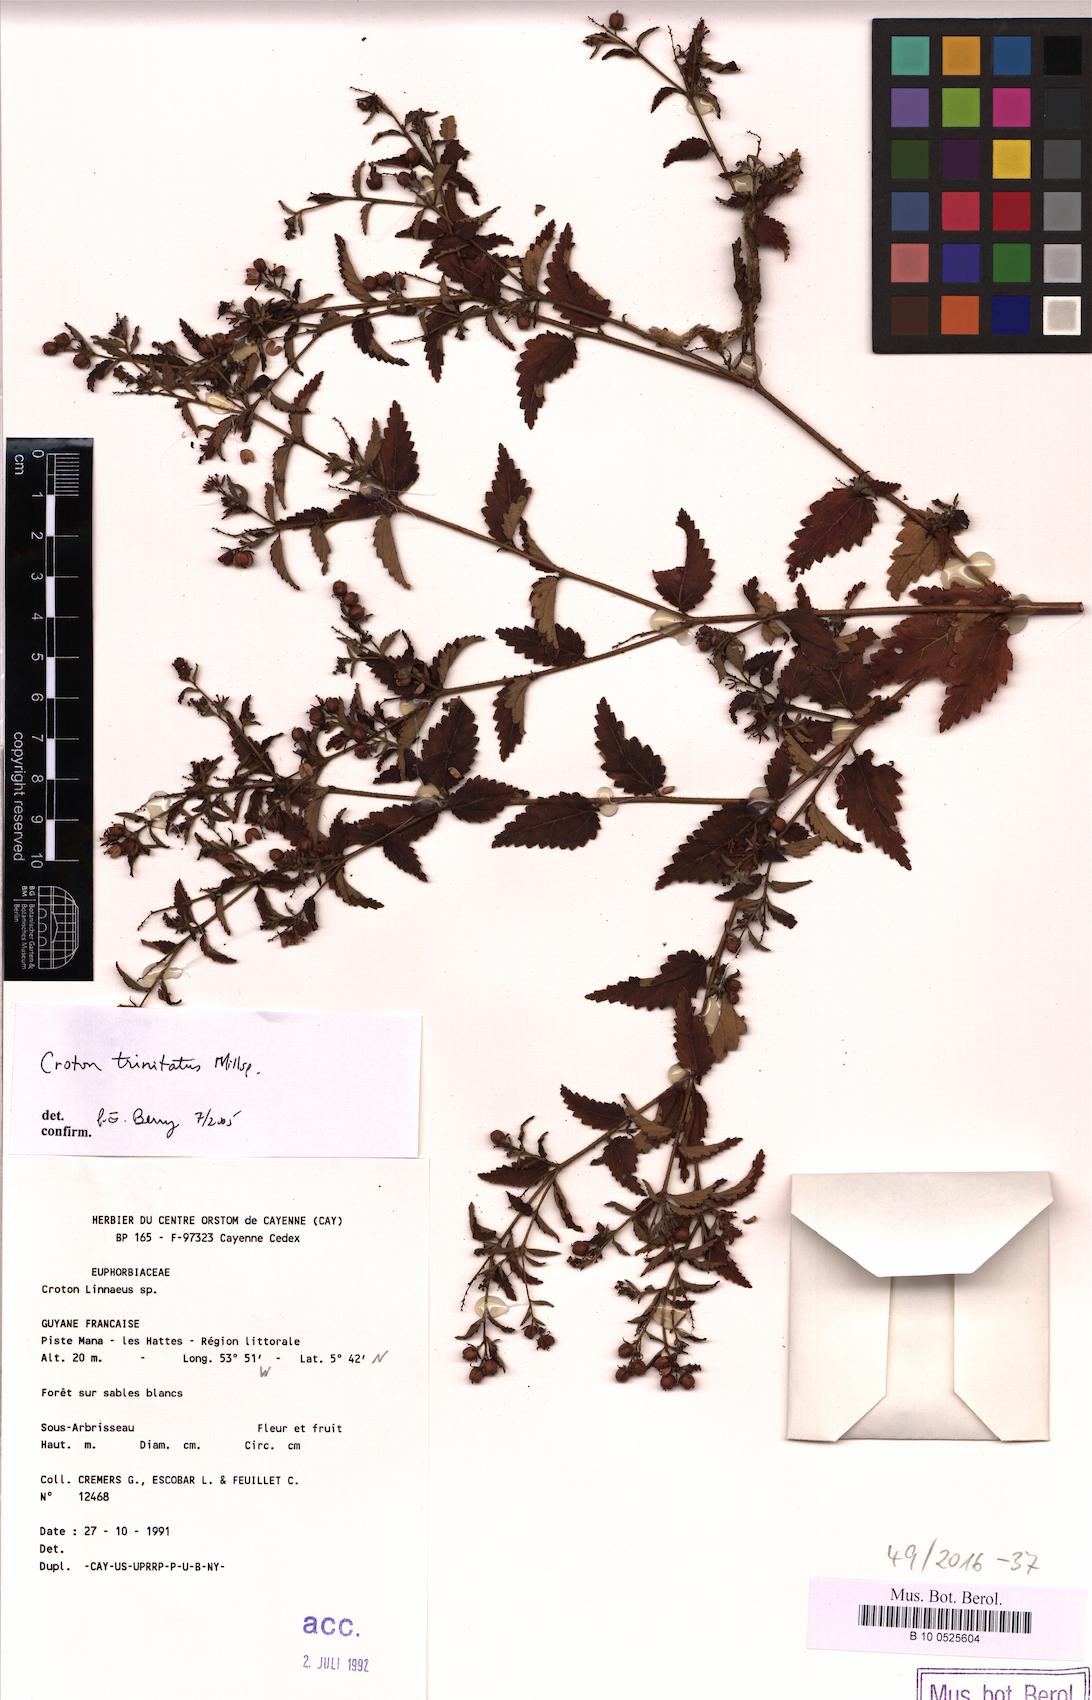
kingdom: Plantae
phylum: Tracheophyta
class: Magnoliopsida
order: Malpighiales
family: Euphorbiaceae
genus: Croton
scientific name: Croton trinitatis
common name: Roadside croton
